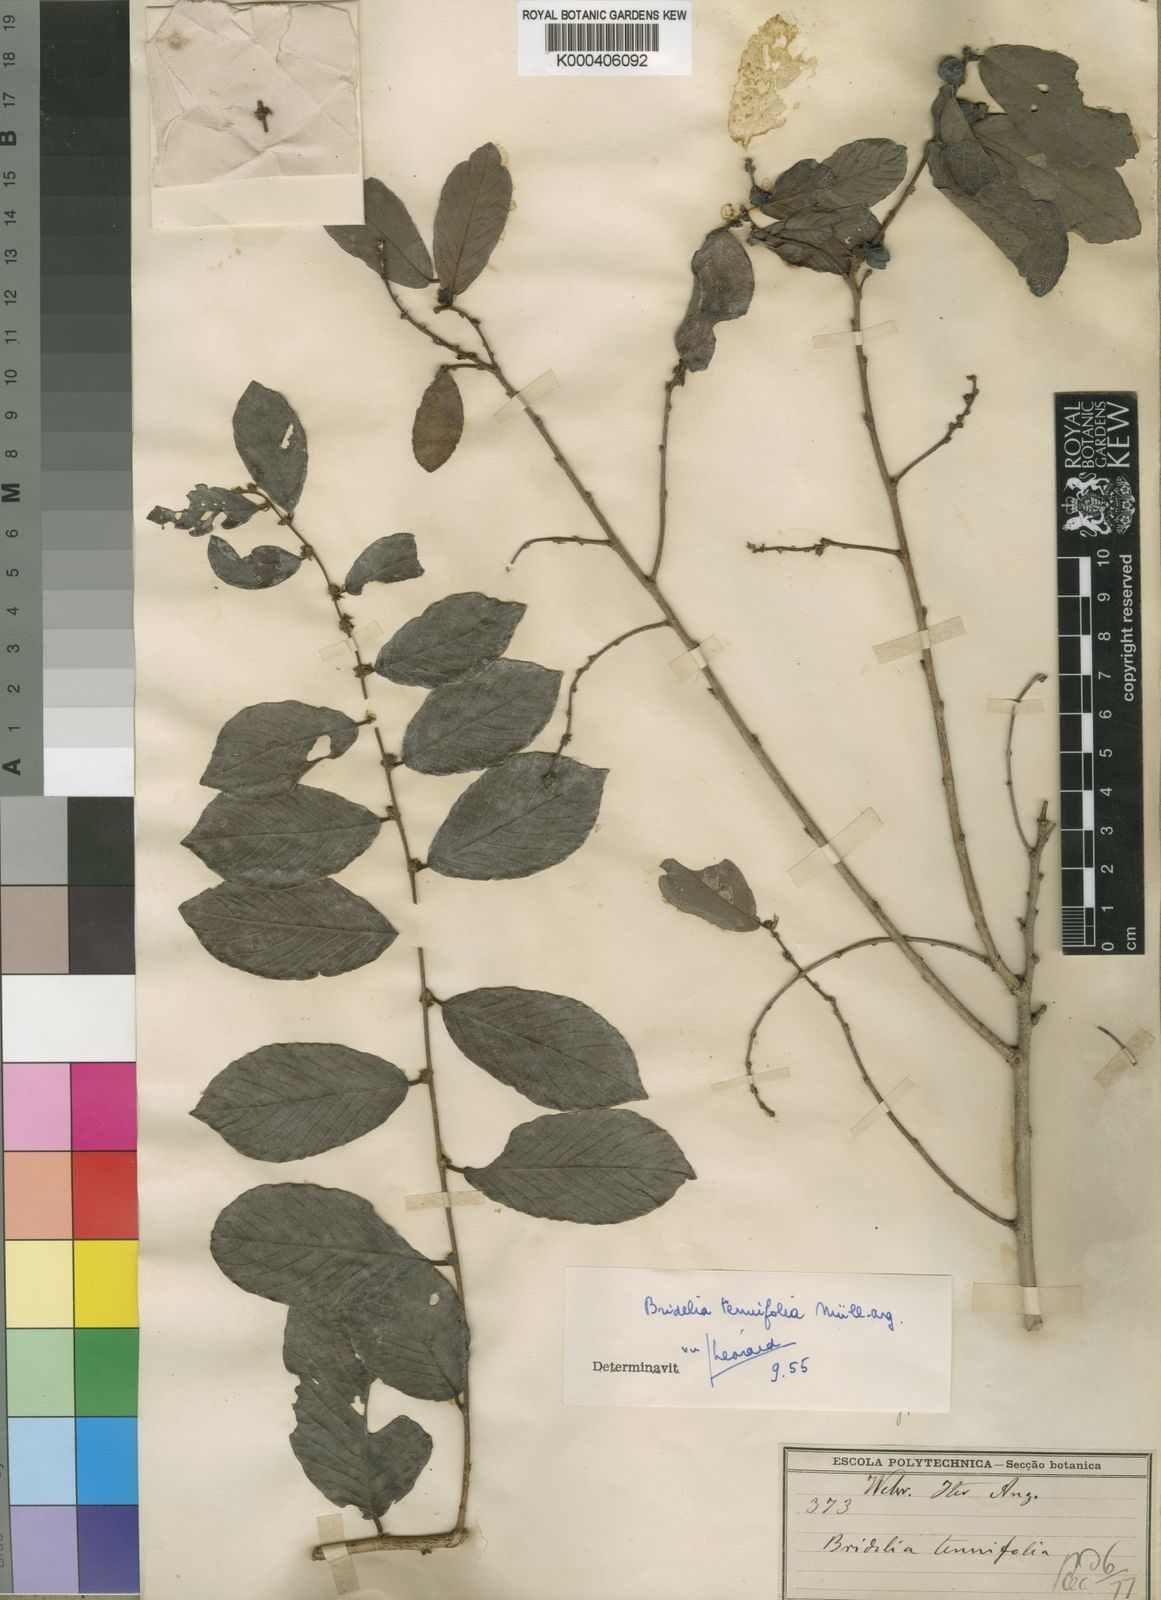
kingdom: Plantae
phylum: Tracheophyta
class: Magnoliopsida
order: Malpighiales
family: Phyllanthaceae
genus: Bridelia
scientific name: Bridelia
